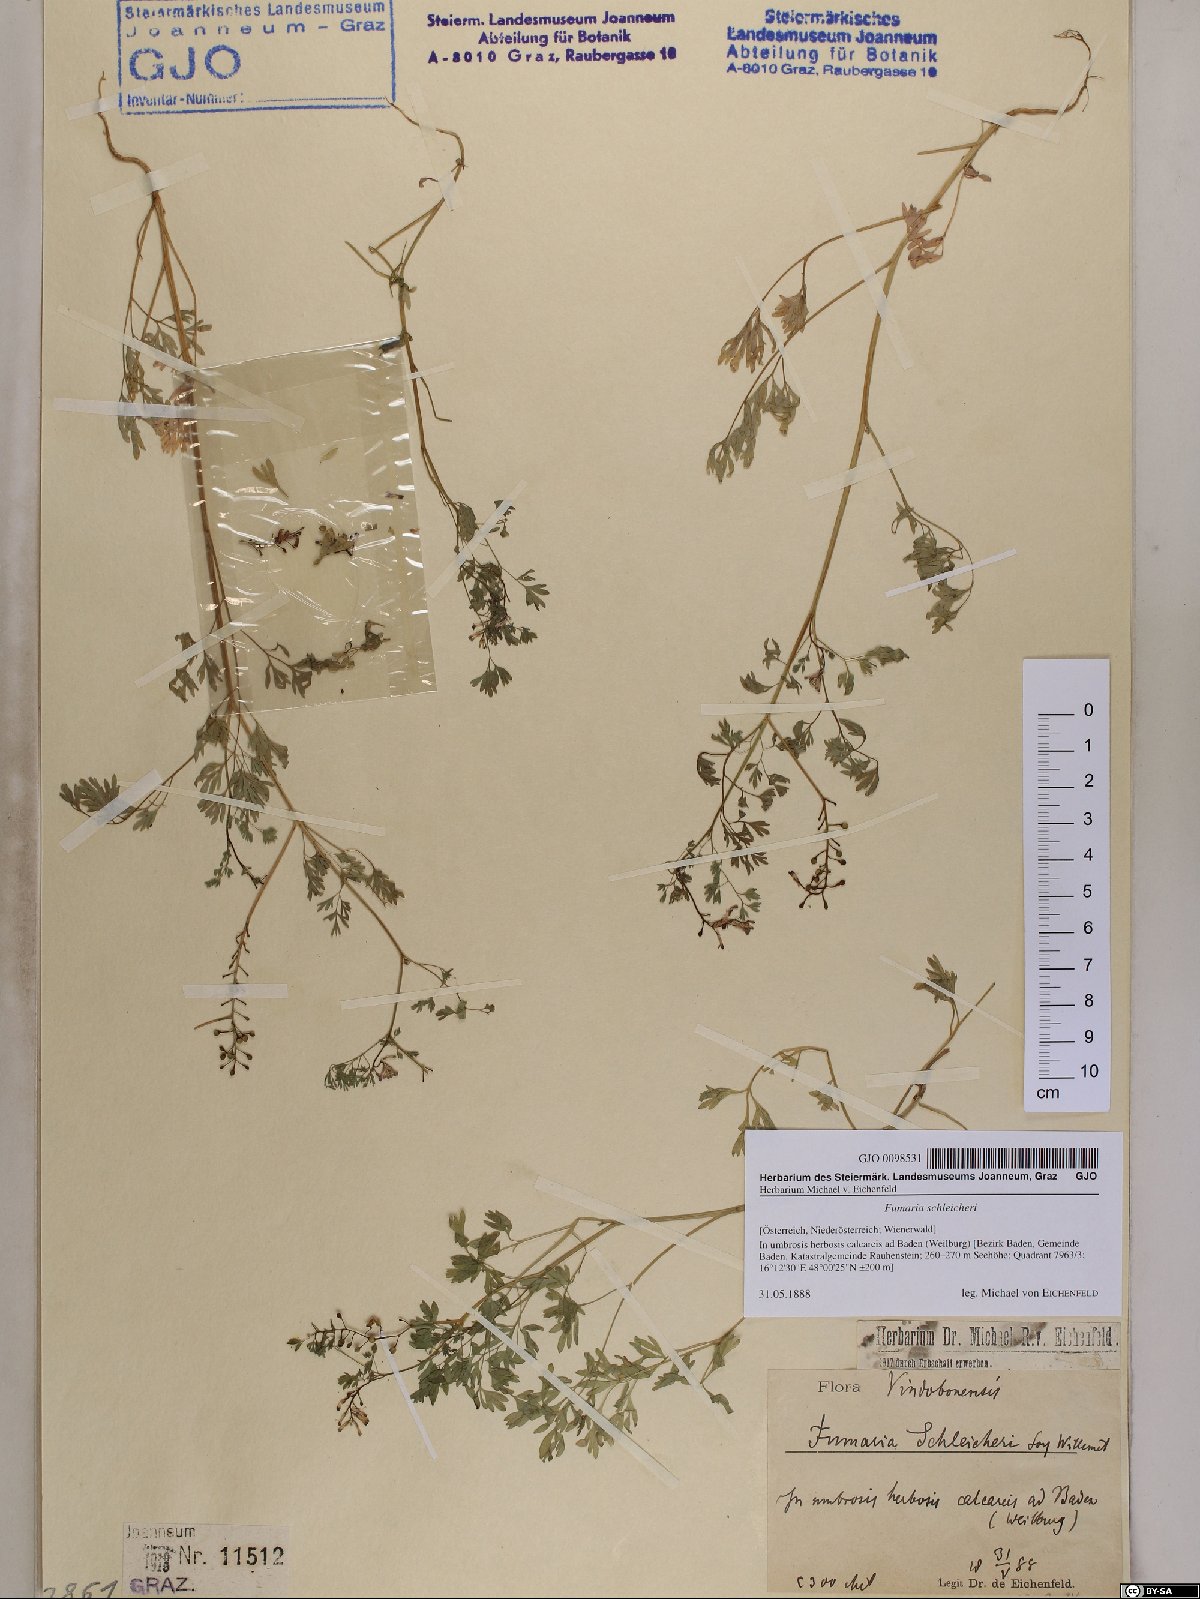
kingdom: Plantae
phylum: Tracheophyta
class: Magnoliopsida
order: Ranunculales
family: Papaveraceae
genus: Fumaria
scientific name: Fumaria schleicheri
